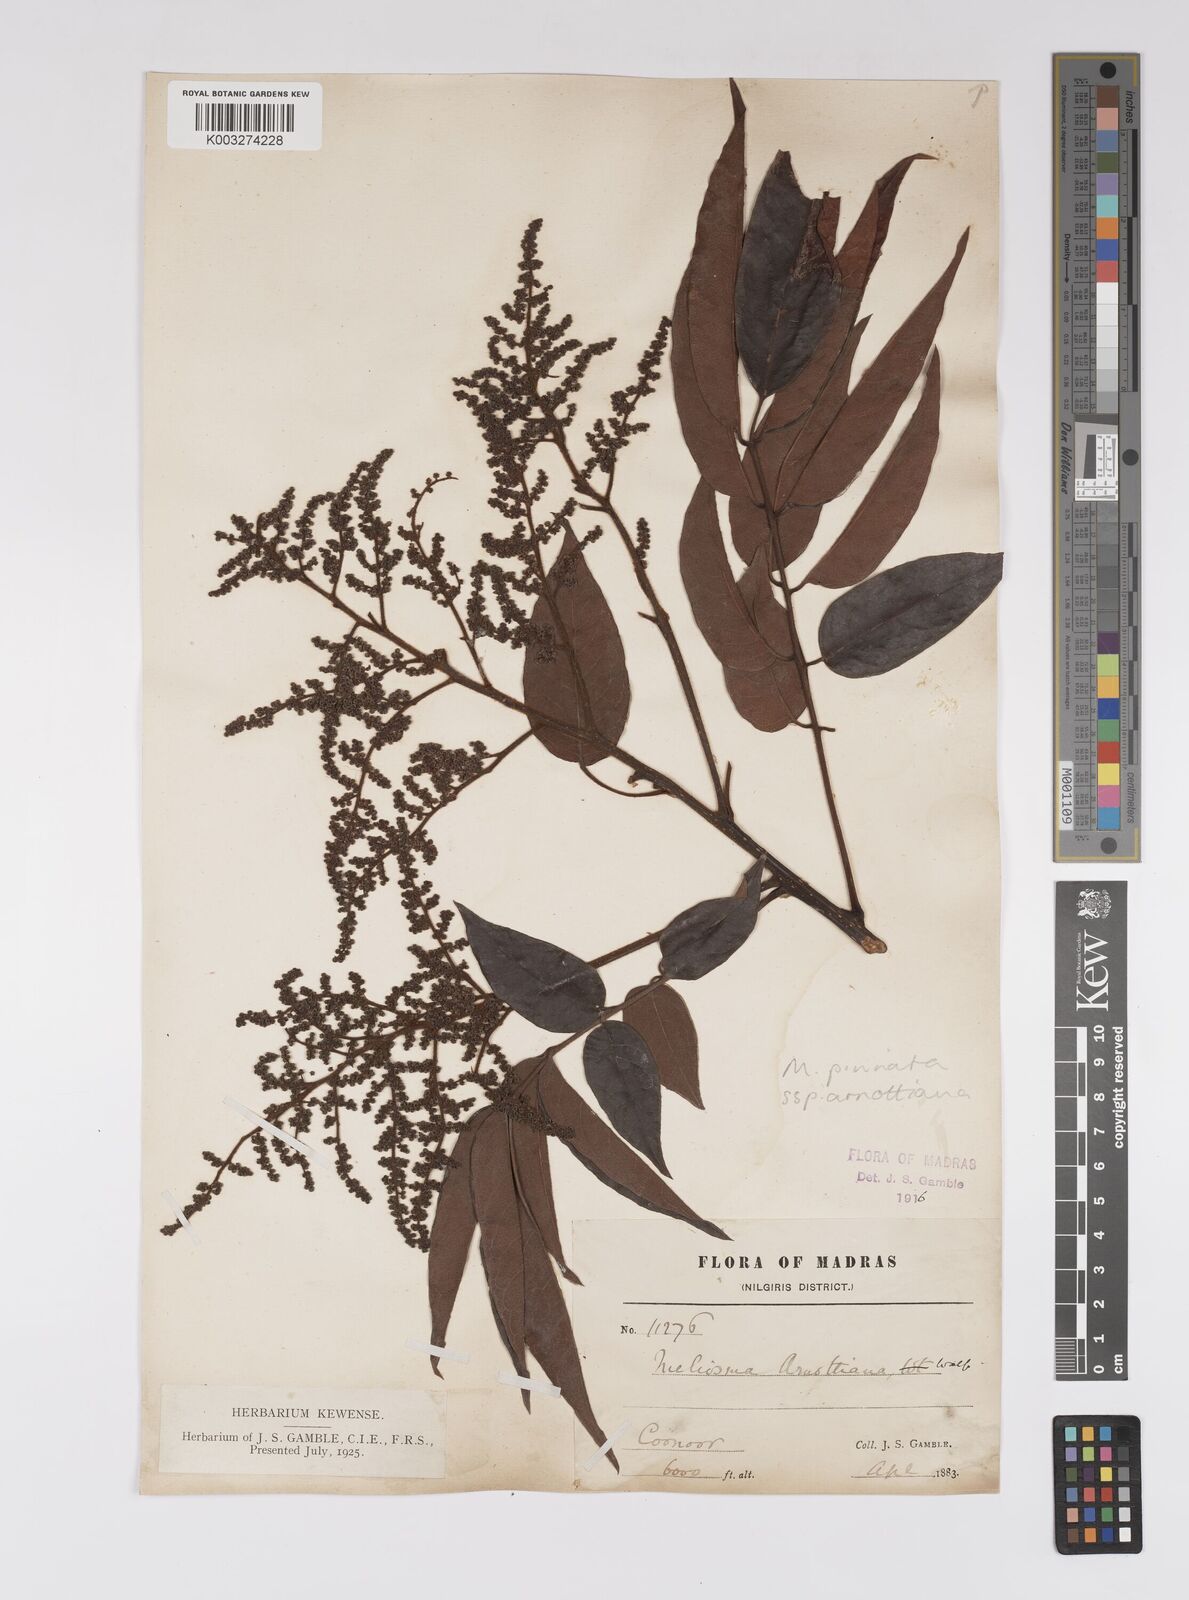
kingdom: Plantae
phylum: Tracheophyta
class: Magnoliopsida
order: Proteales
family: Sabiaceae
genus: Meliosma
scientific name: Meliosma rhoifolia
